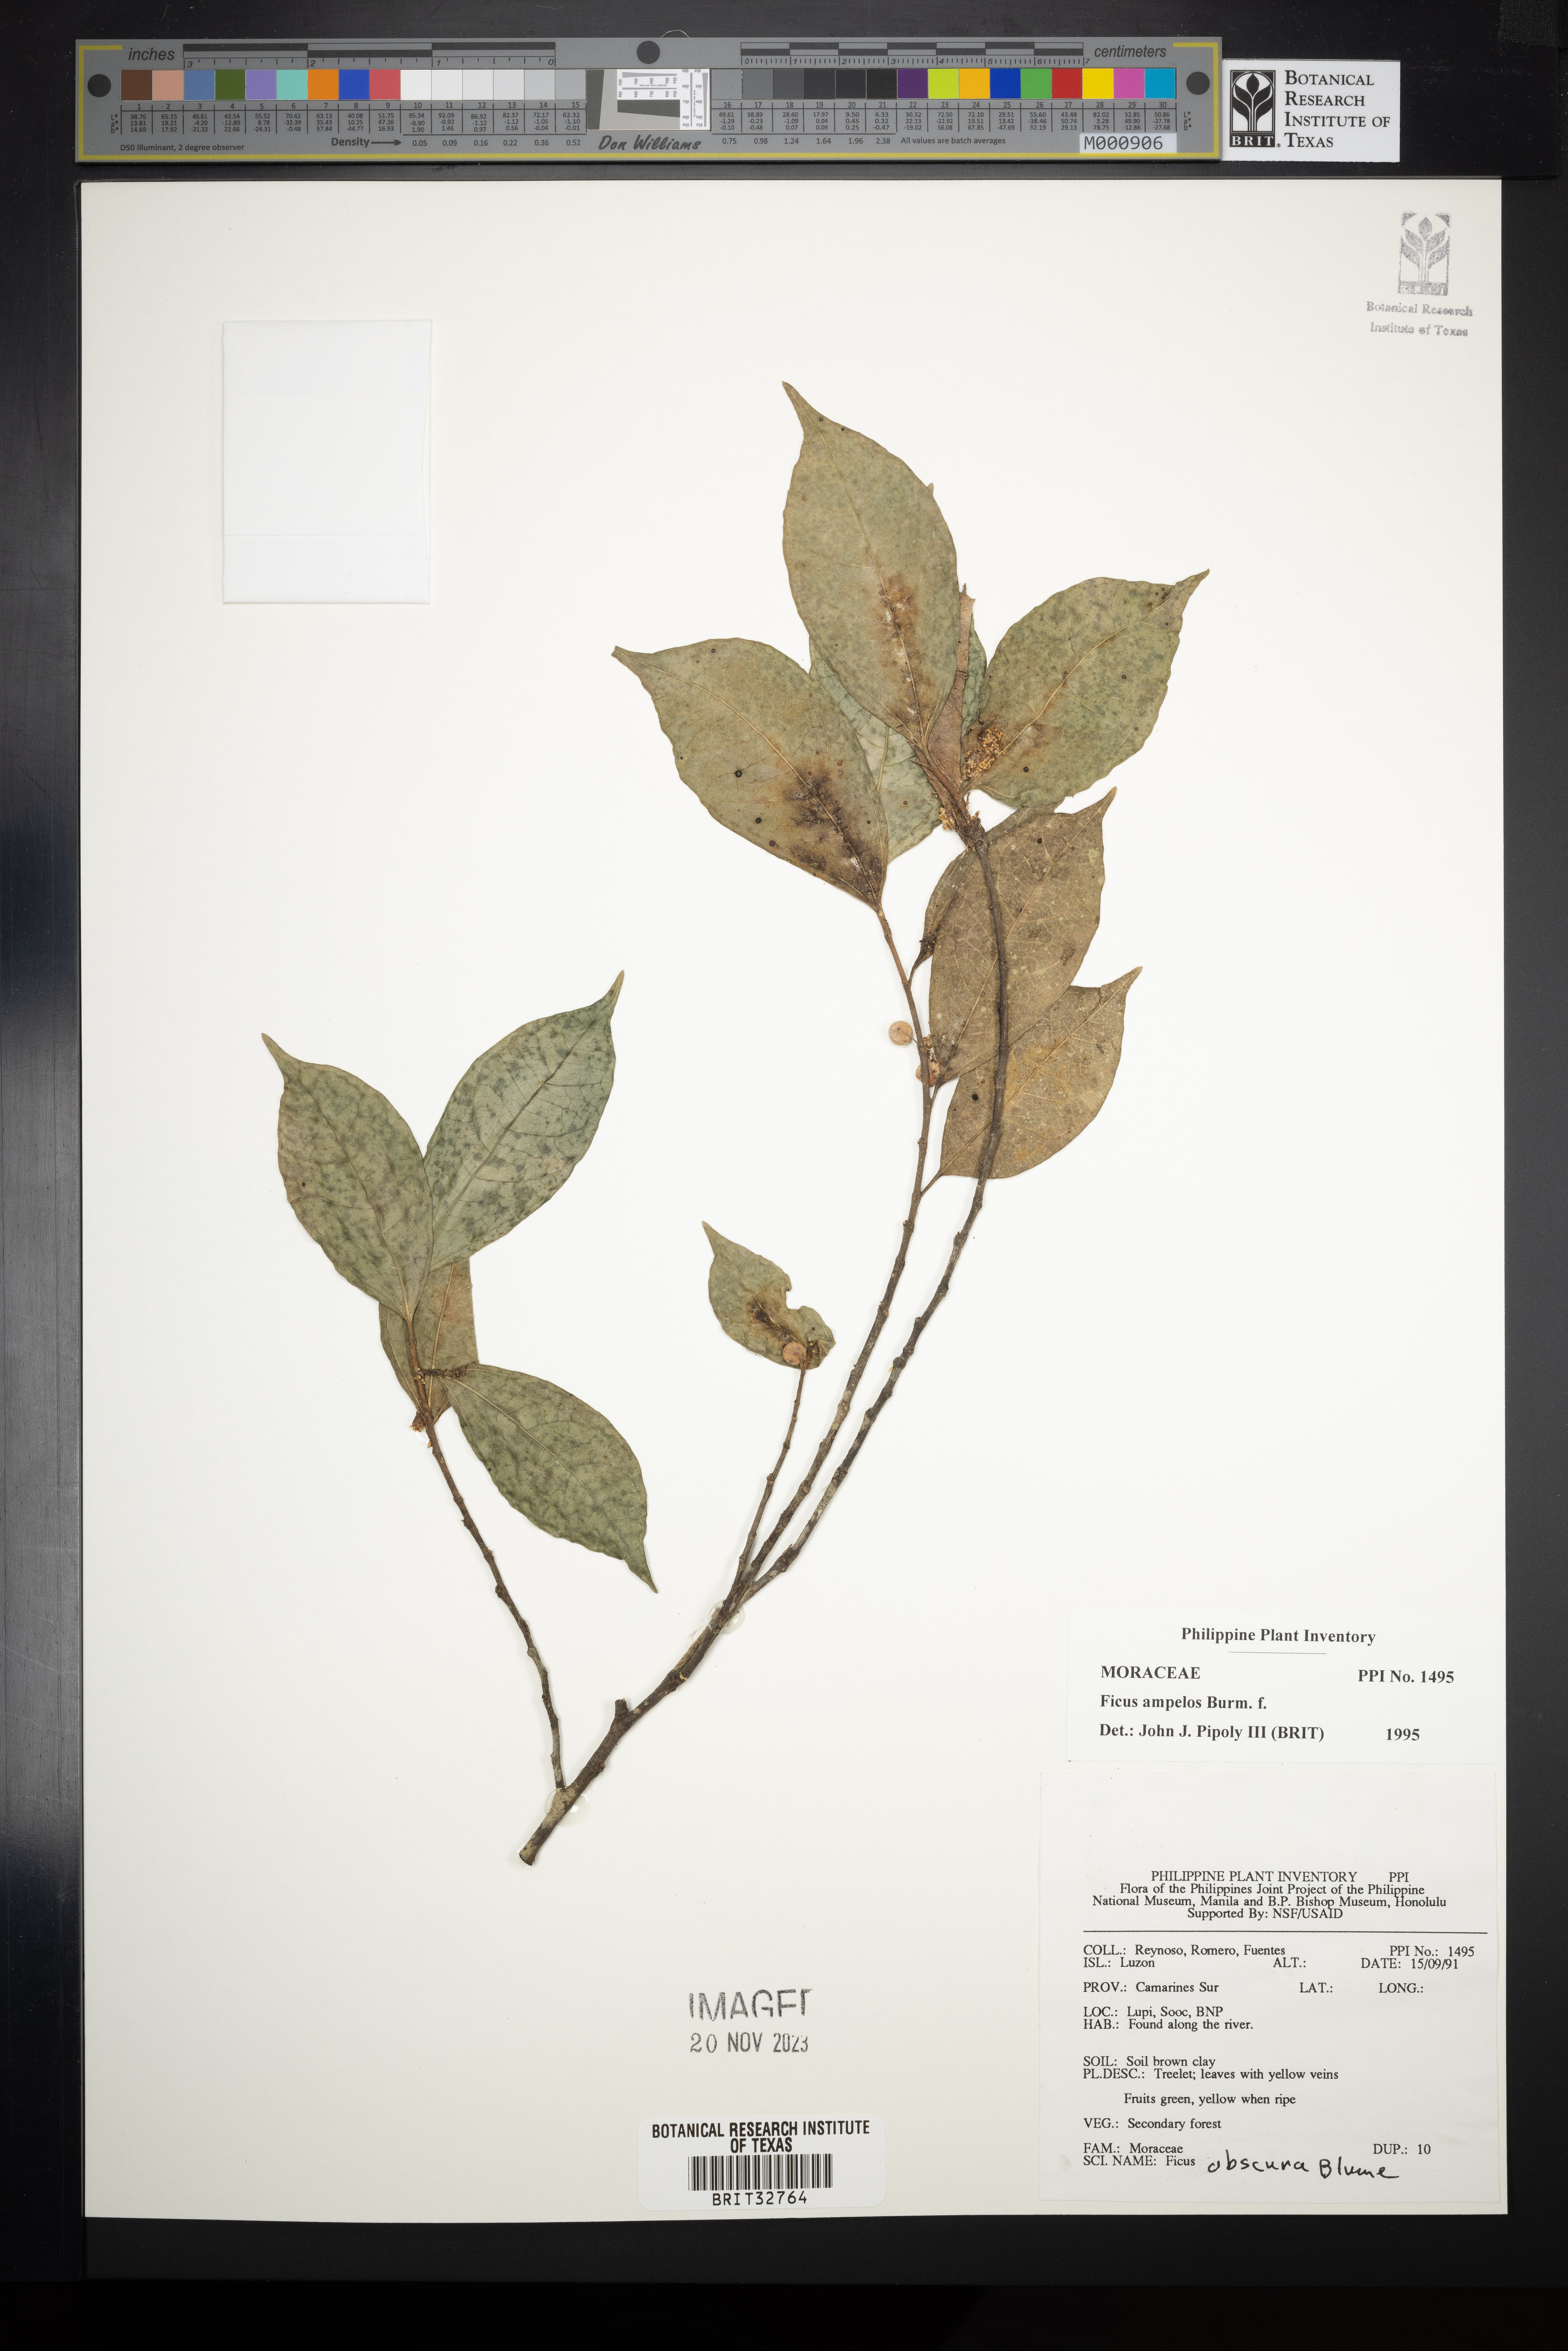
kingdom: Plantae
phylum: Tracheophyta
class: Magnoliopsida
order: Rosales
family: Moraceae
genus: Ficus
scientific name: Ficus ampelos
